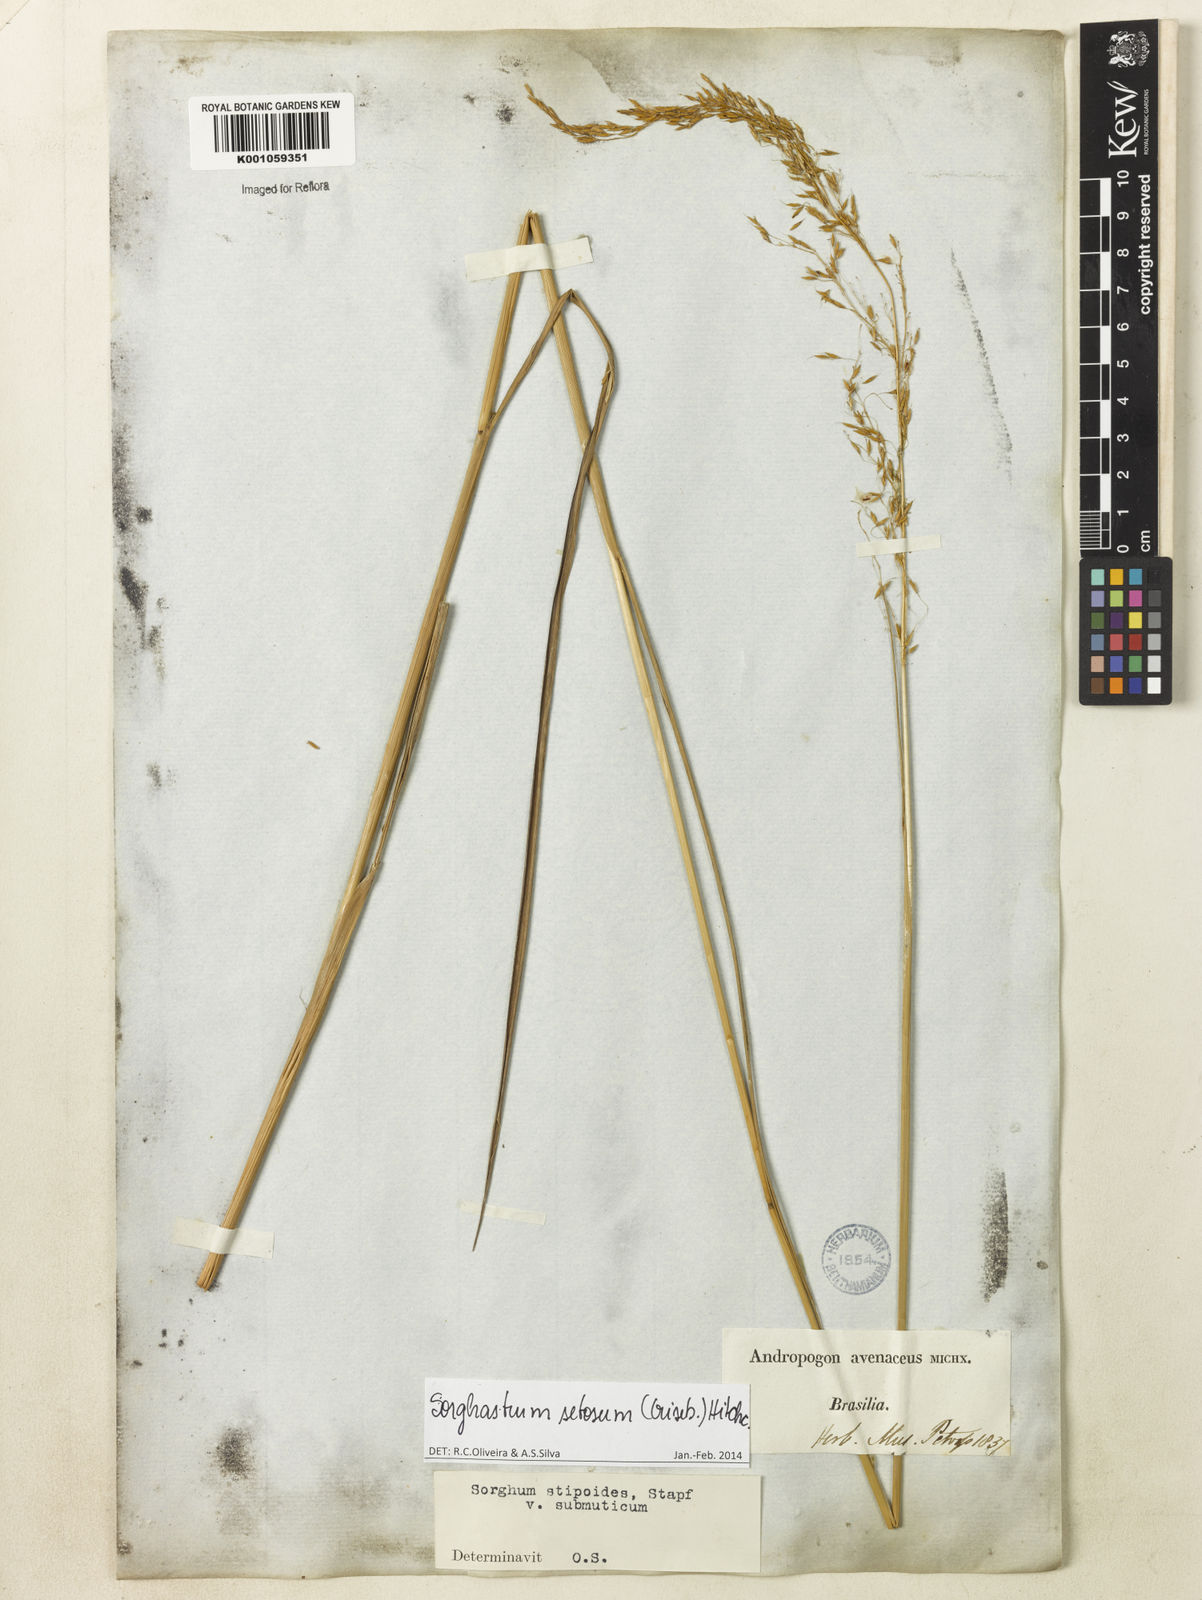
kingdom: Plantae
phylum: Tracheophyta
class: Liliopsida
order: Poales
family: Poaceae
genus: Sorghastrum
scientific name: Sorghastrum setosum
